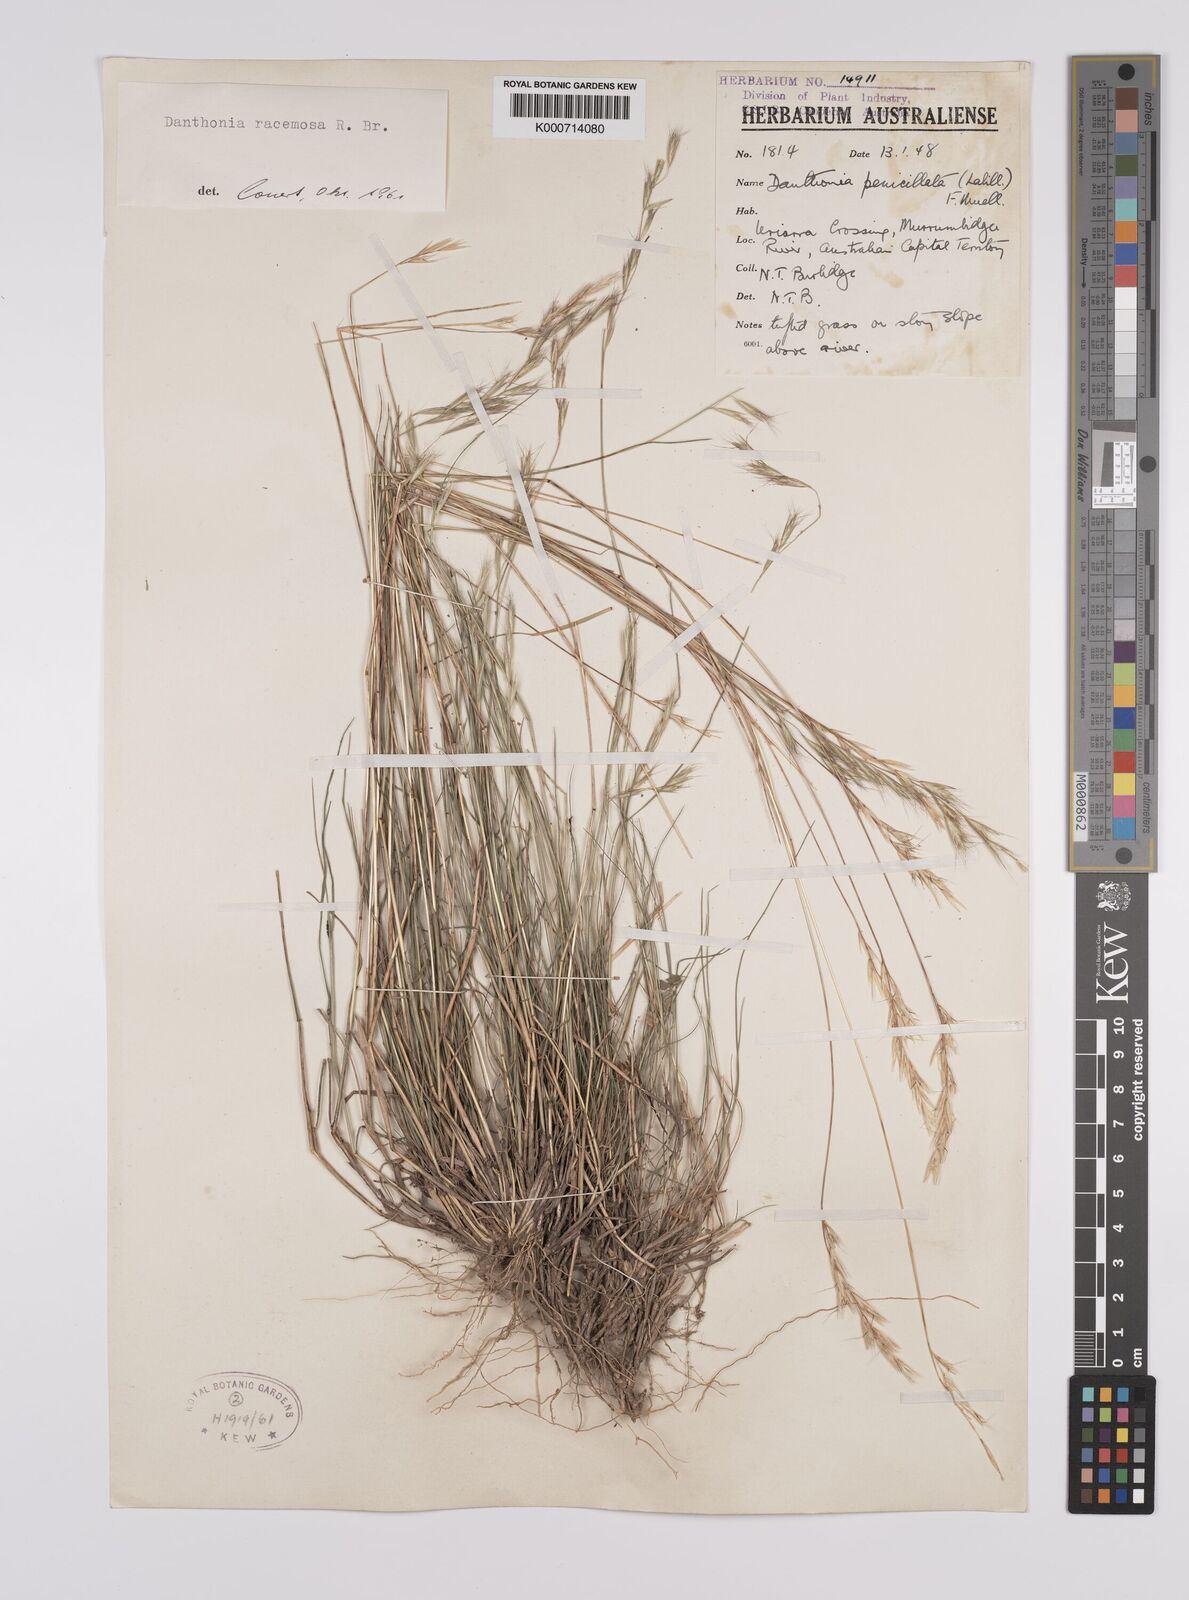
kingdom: Plantae
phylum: Tracheophyta
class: Liliopsida
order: Poales
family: Poaceae
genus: Rytidosperma
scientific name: Rytidosperma racemosum
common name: Wallaby-grass
